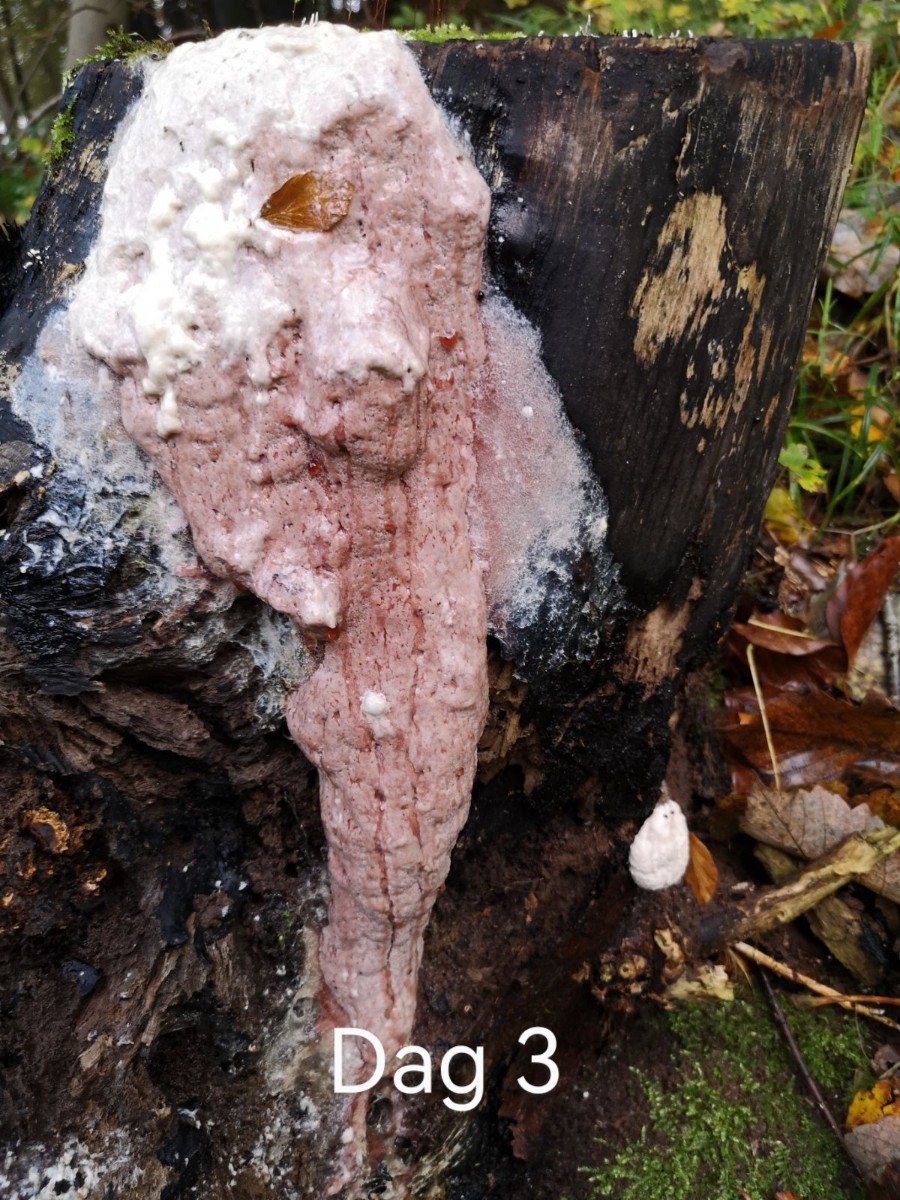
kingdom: Protozoa
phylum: Mycetozoa
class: Myxomycetes
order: Stemonitidales
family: Stemonitidaceae
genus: Brefeldia
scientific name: Brefeldia maxima
